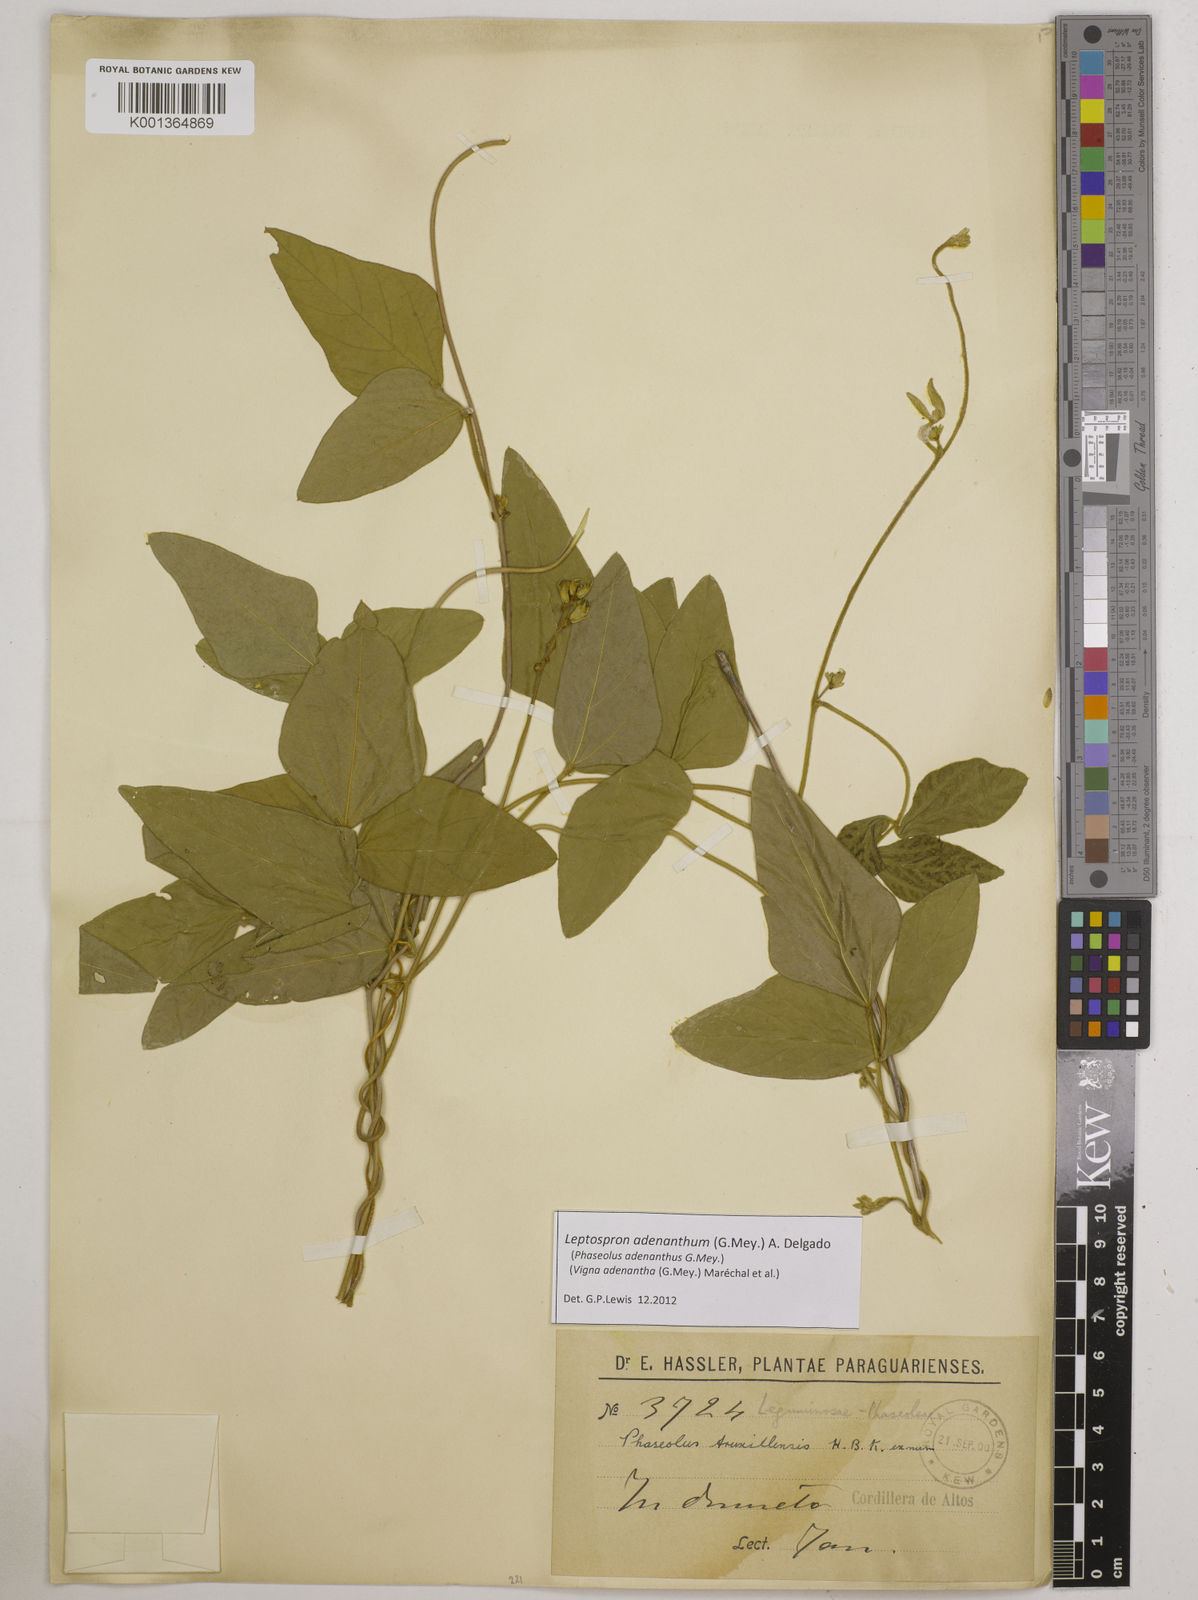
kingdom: Plantae
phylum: Tracheophyta
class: Magnoliopsida
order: Fabales
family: Fabaceae
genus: Leptospron
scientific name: Leptospron adenanthum
